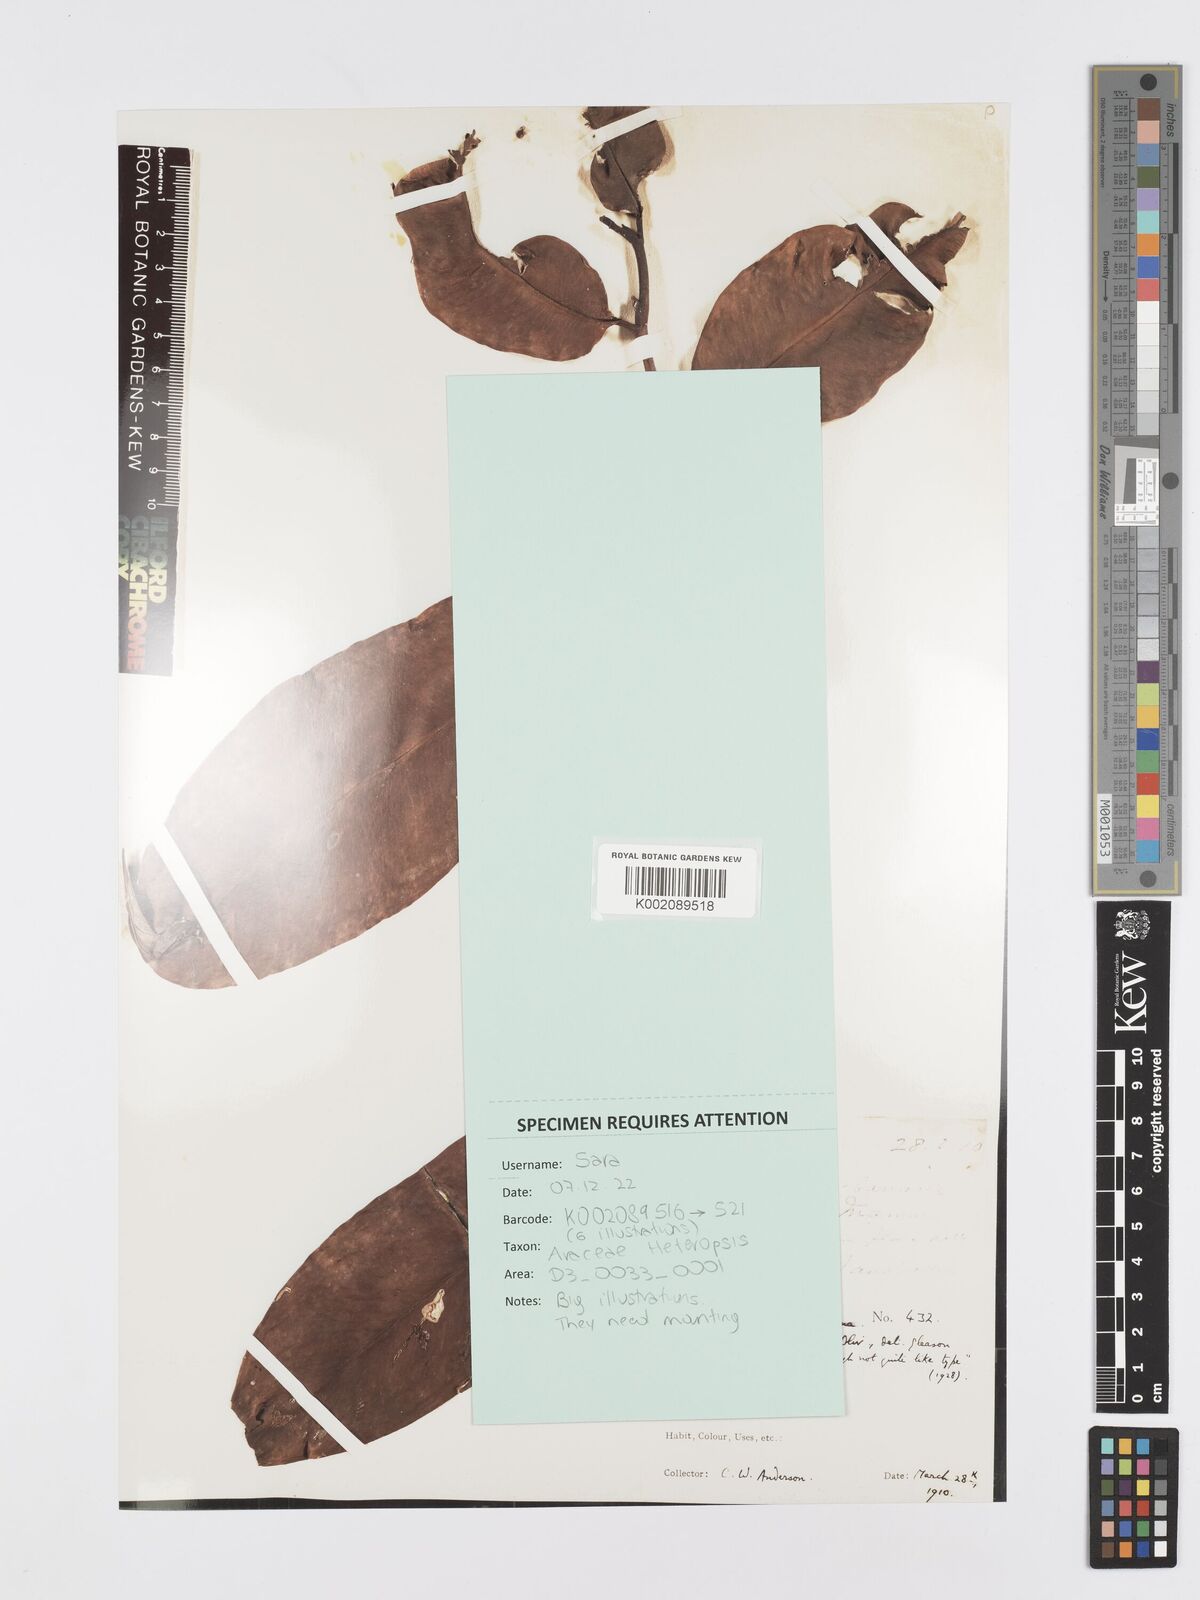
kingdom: Plantae
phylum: Tracheophyta
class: Liliopsida
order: Alismatales
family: Araceae
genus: Heteropsis
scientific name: Heteropsis flexuosa
